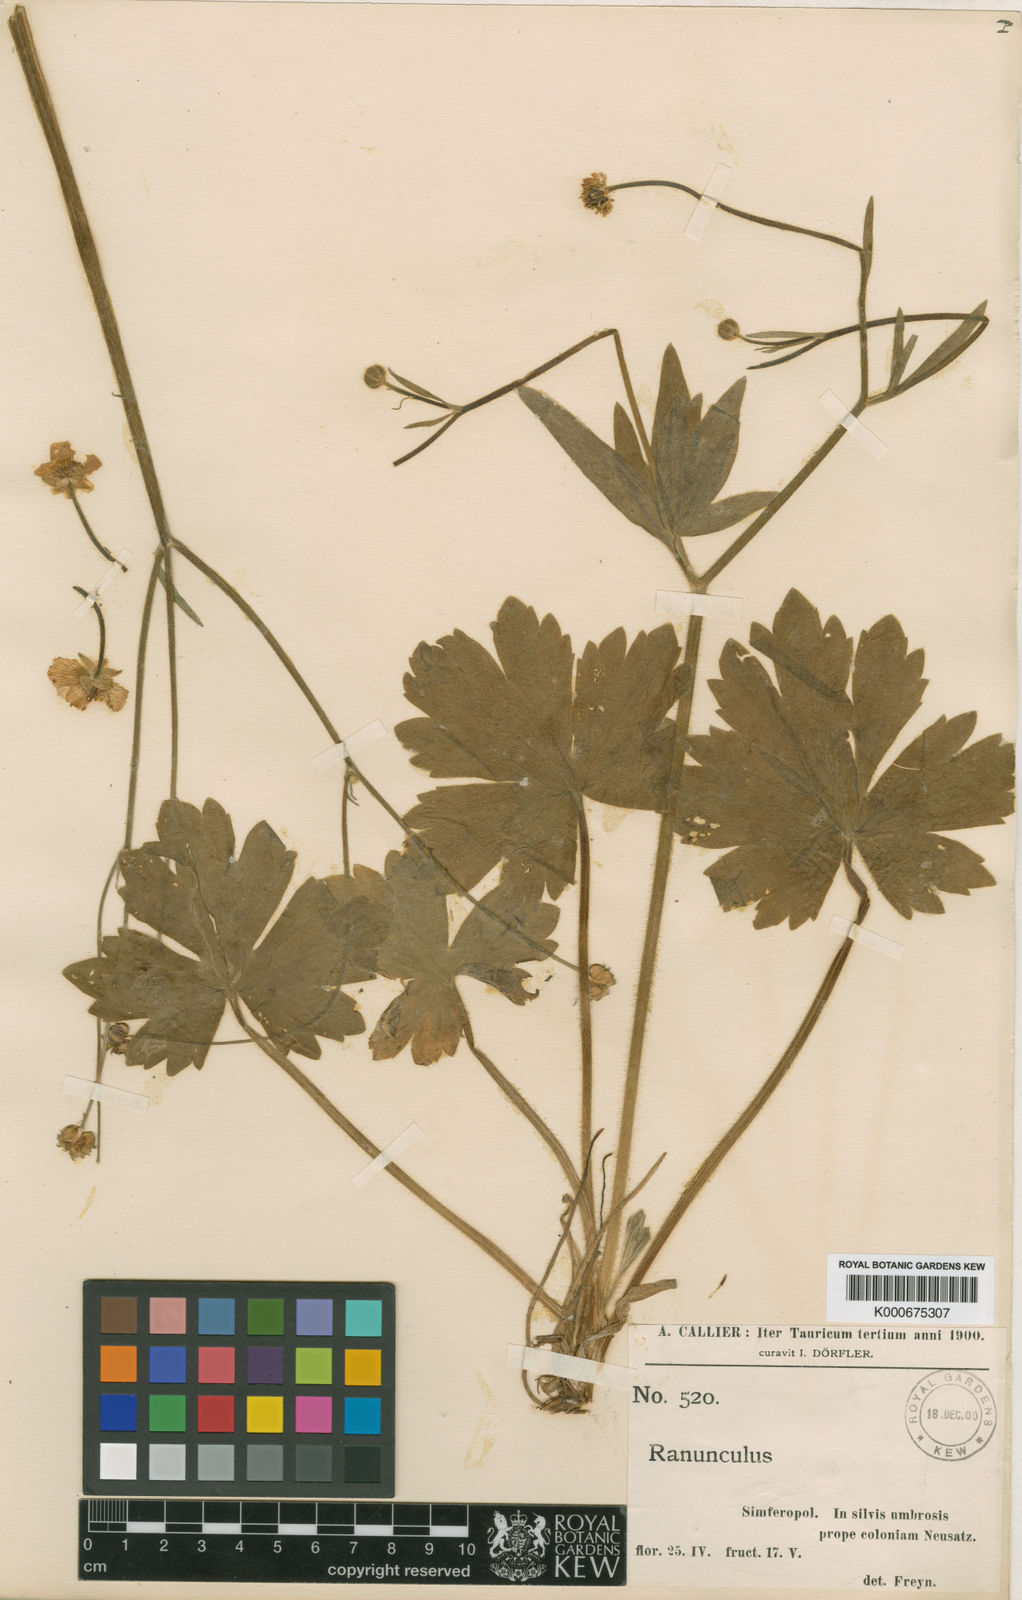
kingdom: Plantae
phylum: Tracheophyta
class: Magnoliopsida
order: Ranunculales
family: Ranunculaceae
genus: Ranunculus
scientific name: Ranunculus constantinopolitanus
